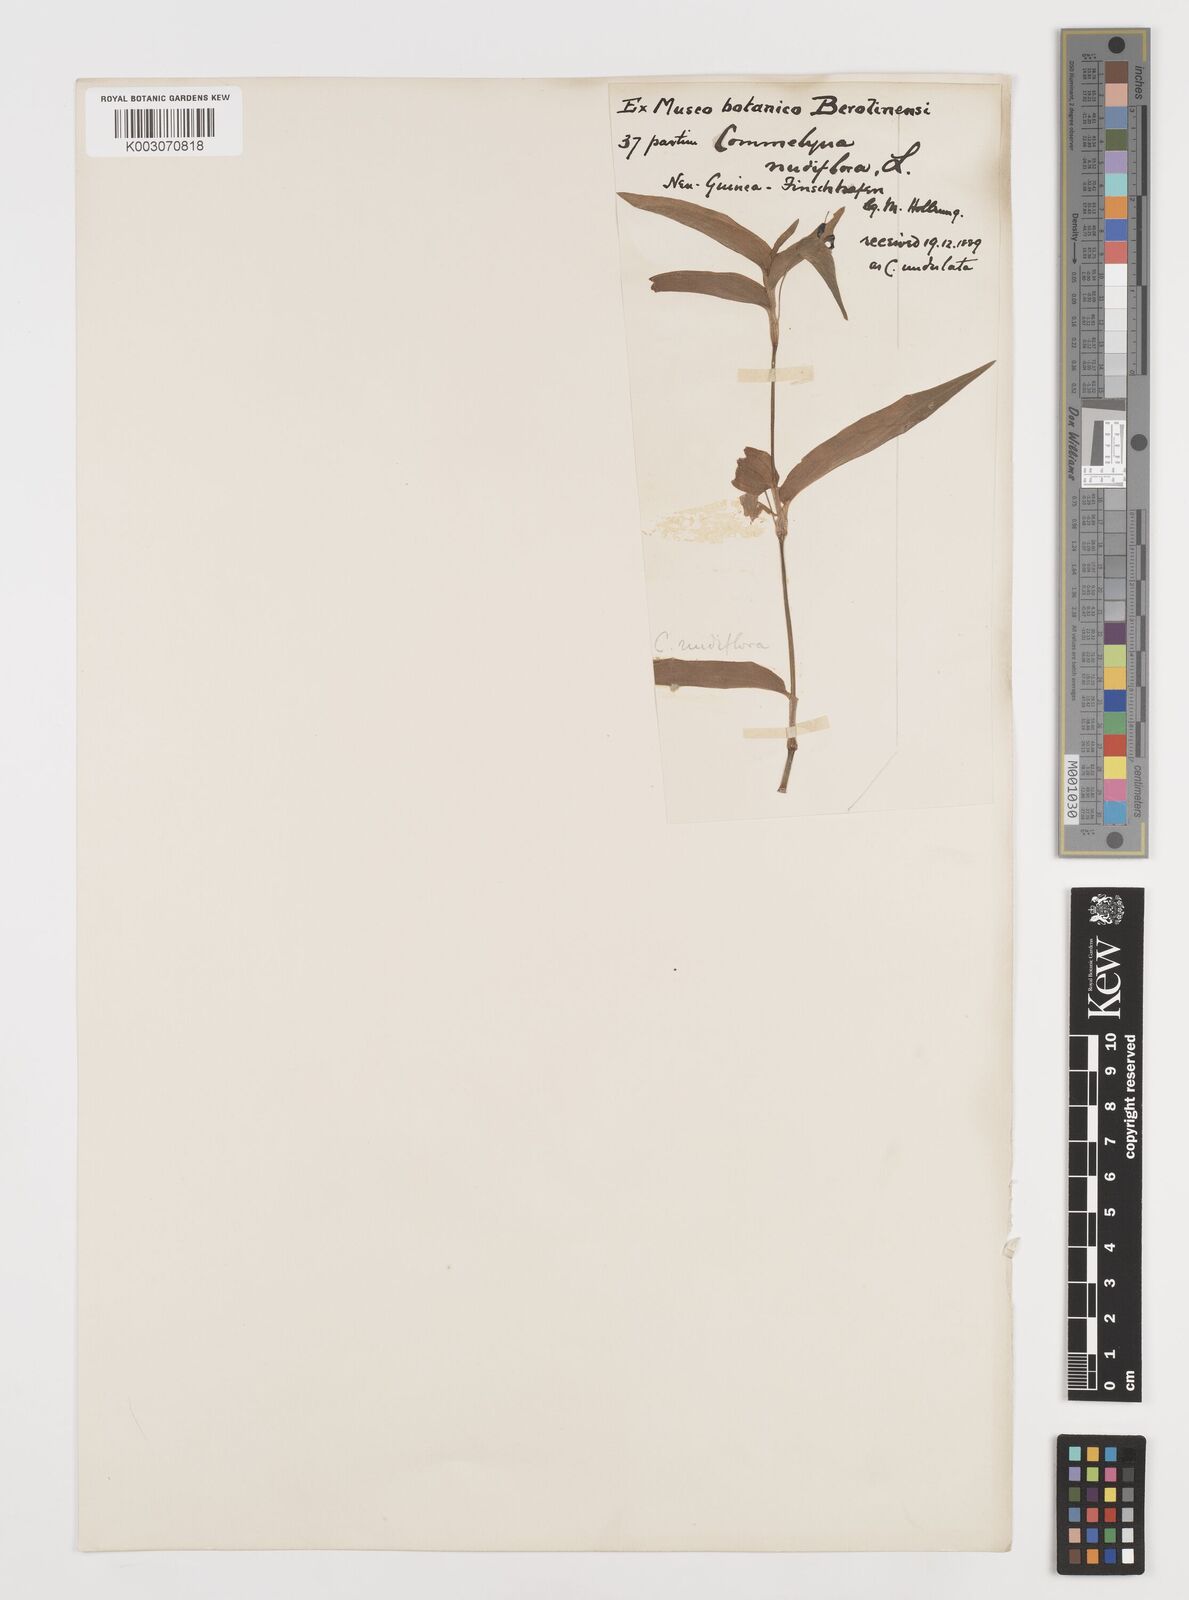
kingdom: Plantae
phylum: Tracheophyta
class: Liliopsida
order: Commelinales
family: Commelinaceae
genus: Murdannia
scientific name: Murdannia nudiflora
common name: Nakedstem dewflower
